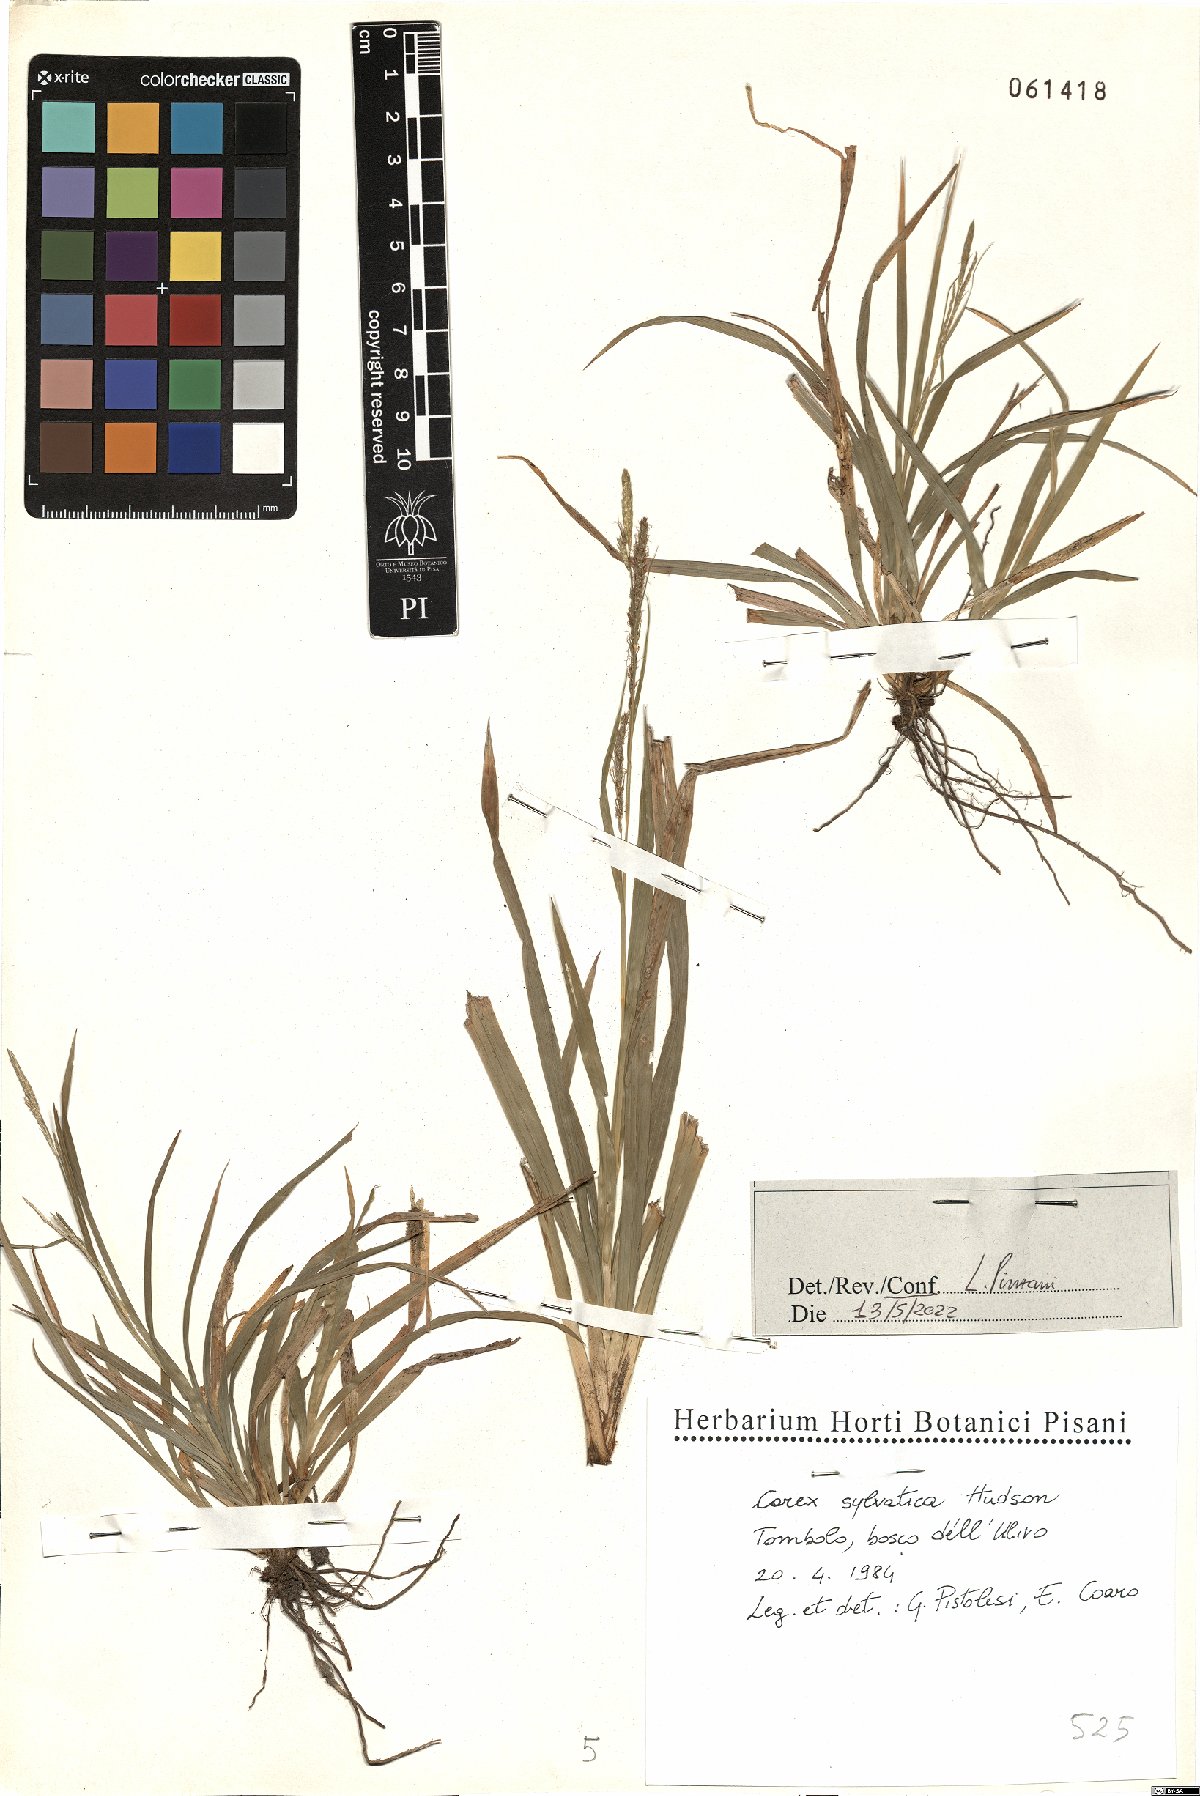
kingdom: Plantae
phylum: Tracheophyta
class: Liliopsida
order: Poales
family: Cyperaceae
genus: Carex
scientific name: Carex sylvatica
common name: Wood-sedge
